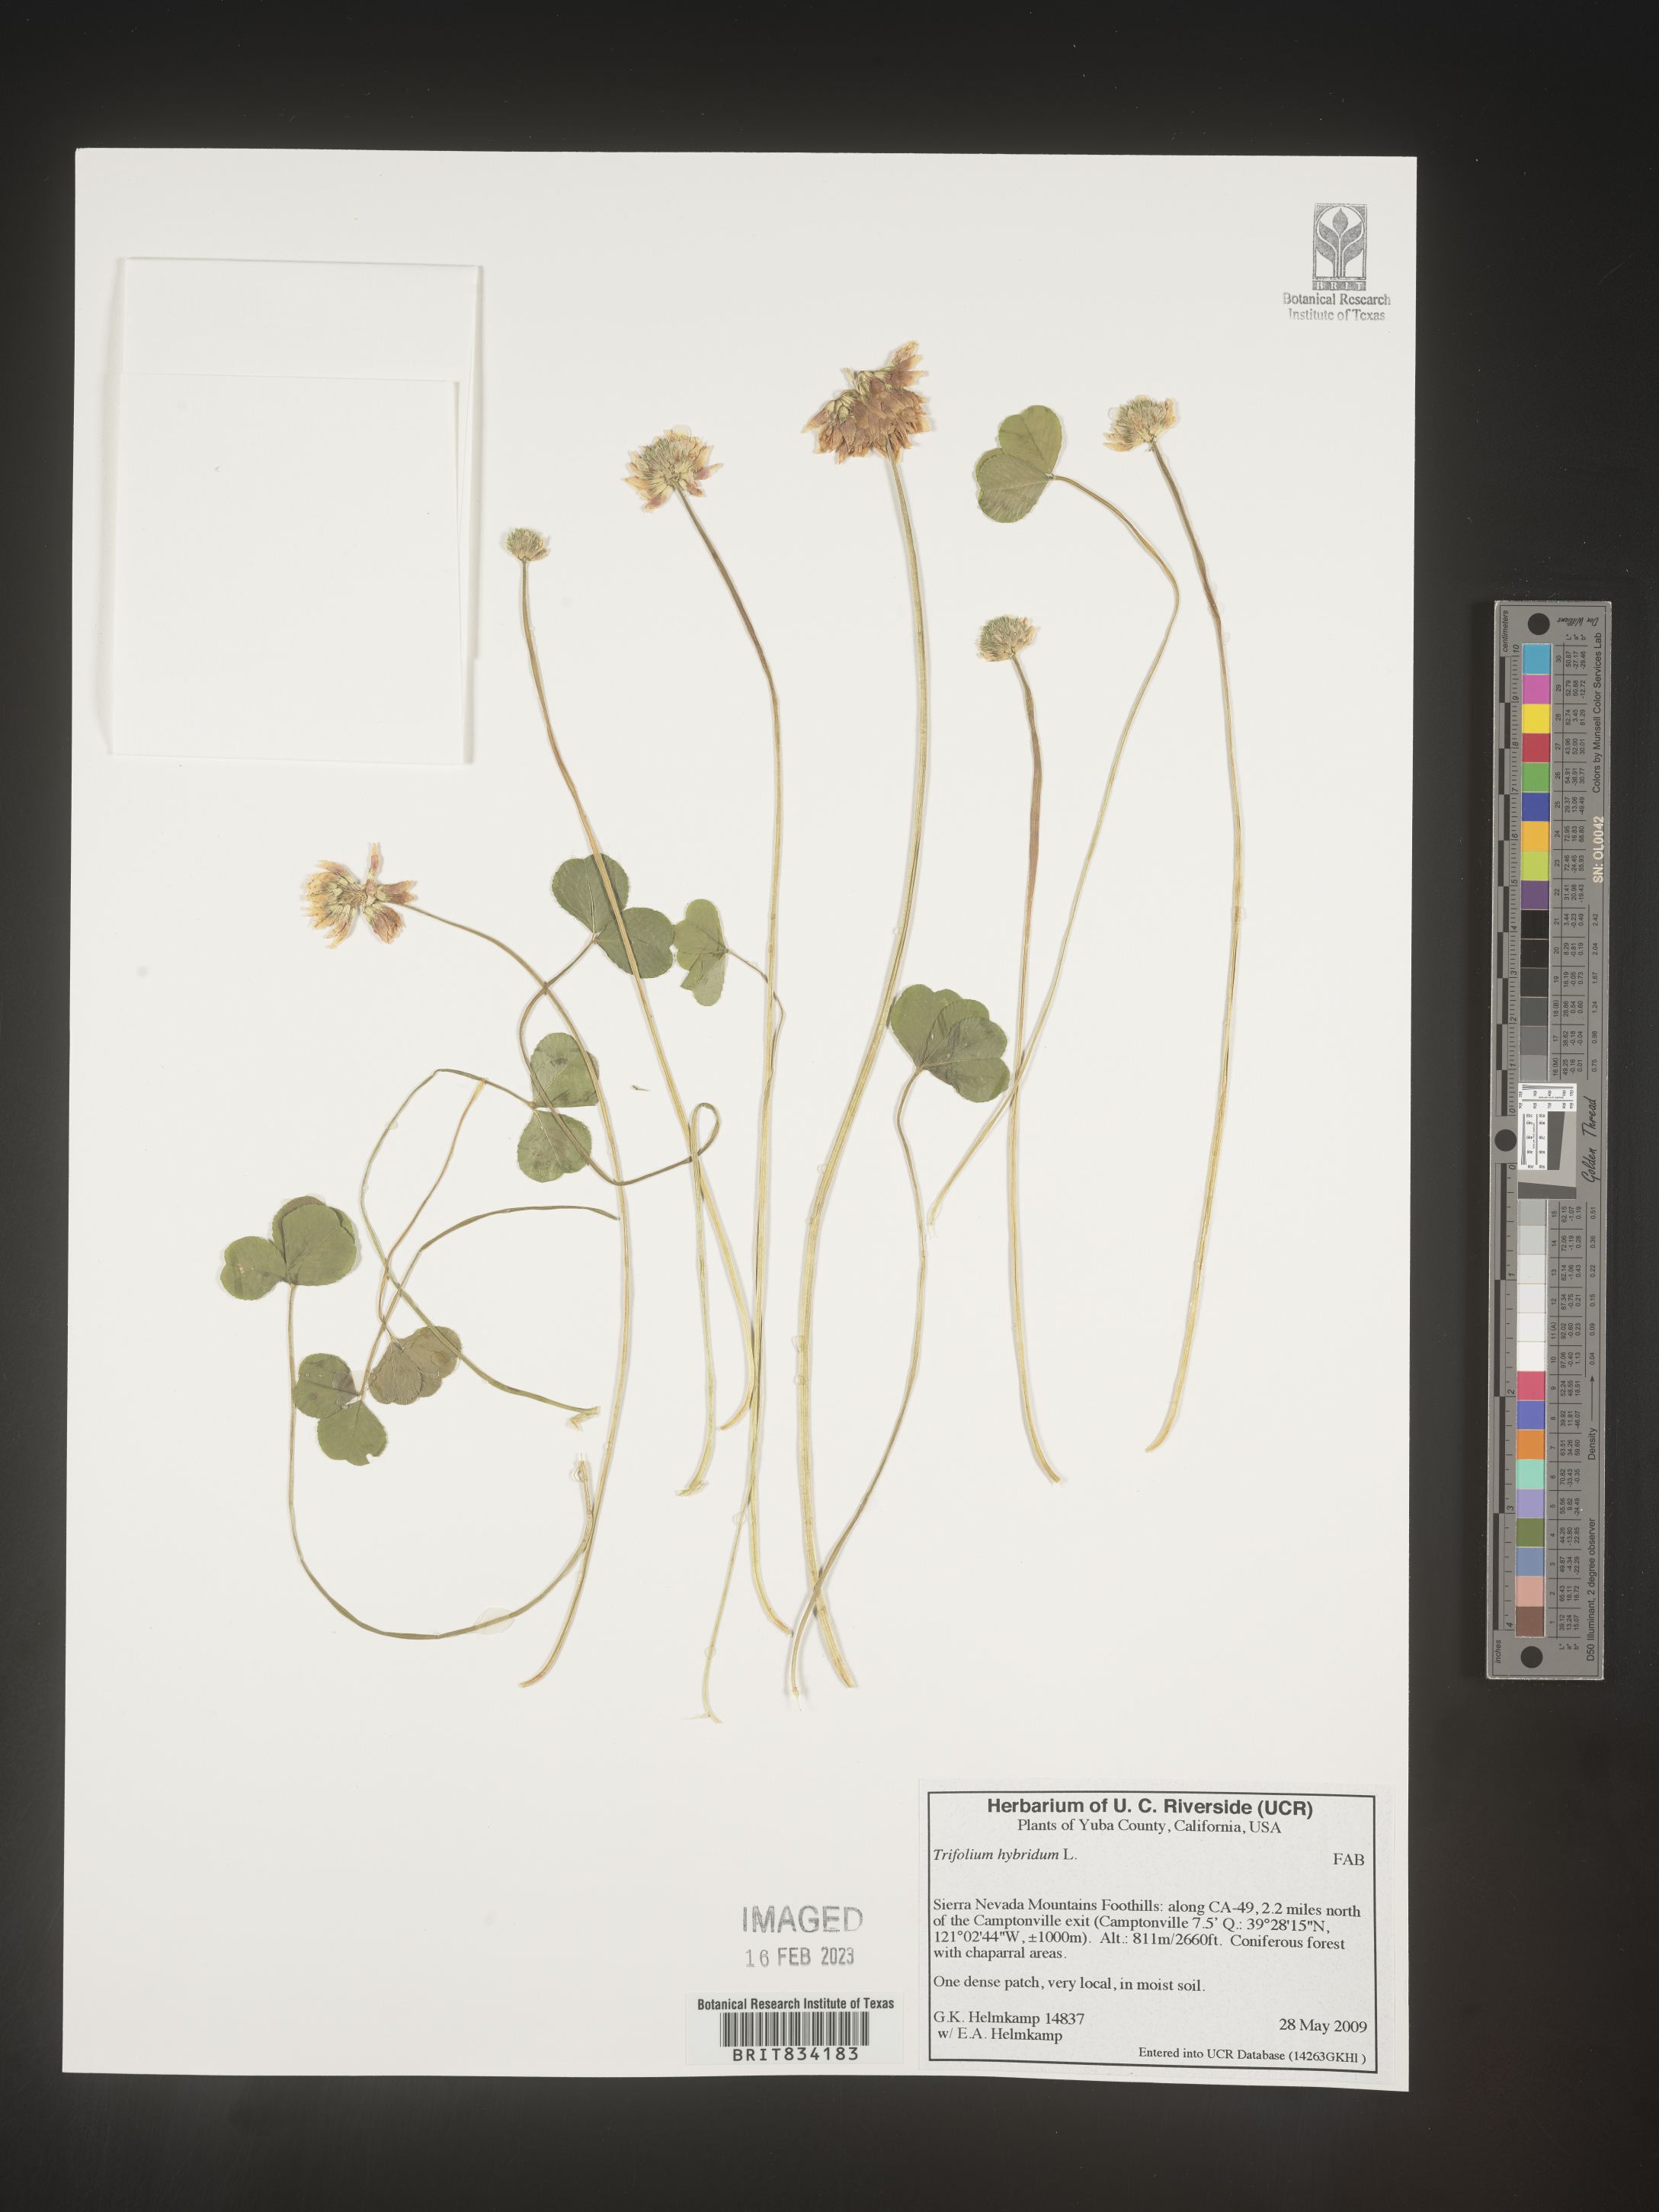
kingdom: Plantae
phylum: Tracheophyta
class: Magnoliopsida
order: Fabales
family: Fabaceae
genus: Trifolium
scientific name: Trifolium hybridum
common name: Alsike clover
